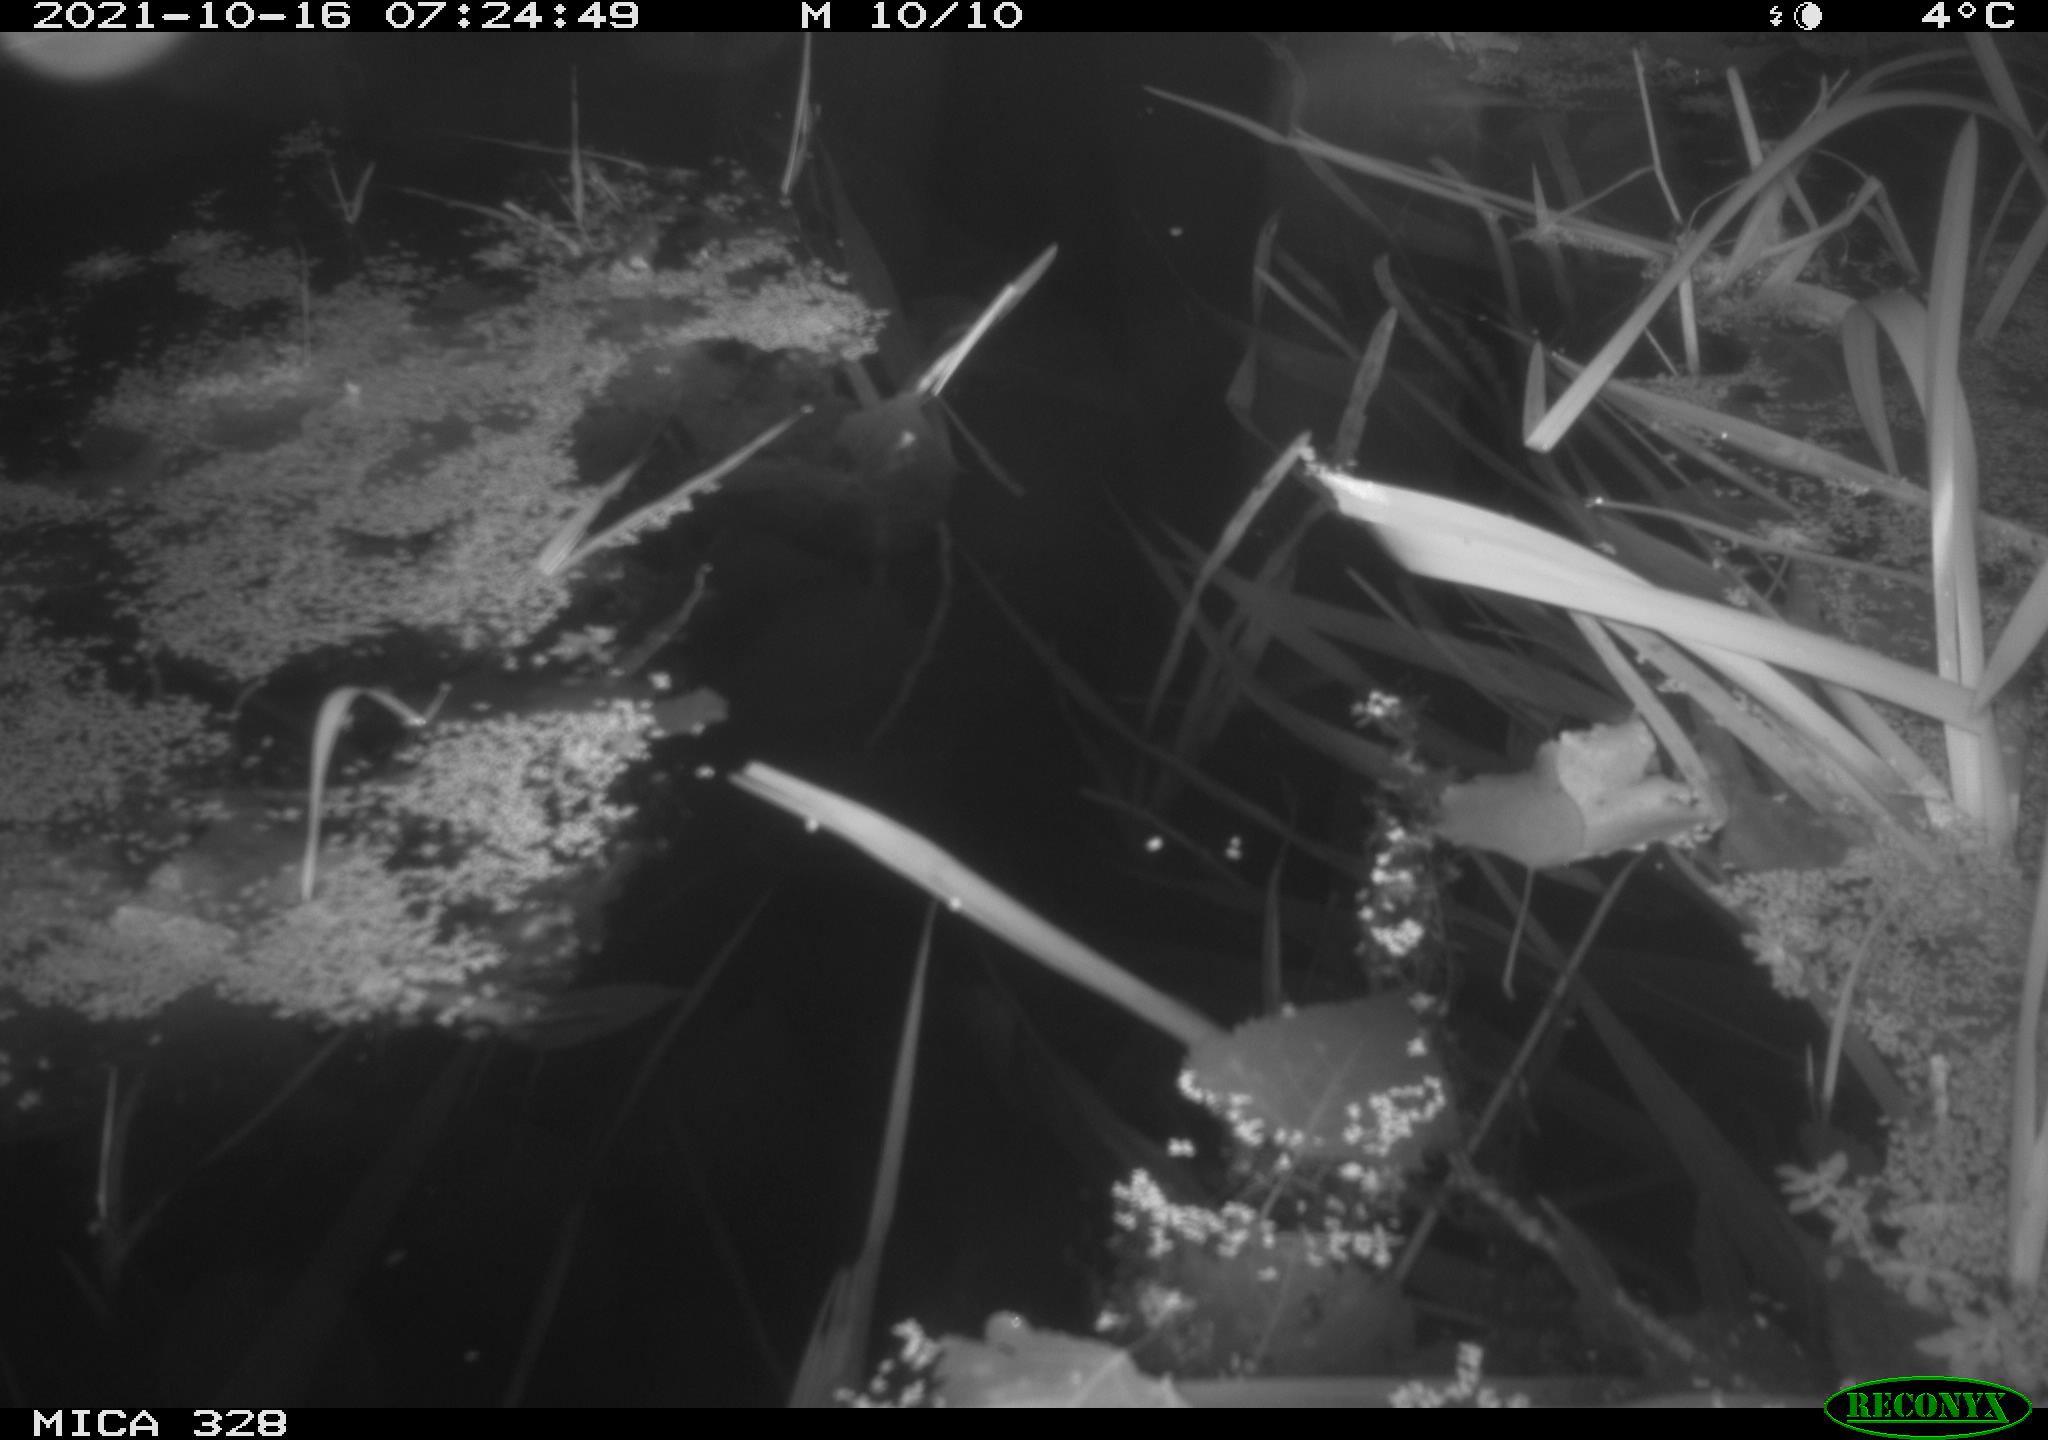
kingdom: Animalia
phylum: Chordata
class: Mammalia
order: Rodentia
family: Cricetidae
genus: Ondatra
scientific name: Ondatra zibethicus
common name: Muskrat
